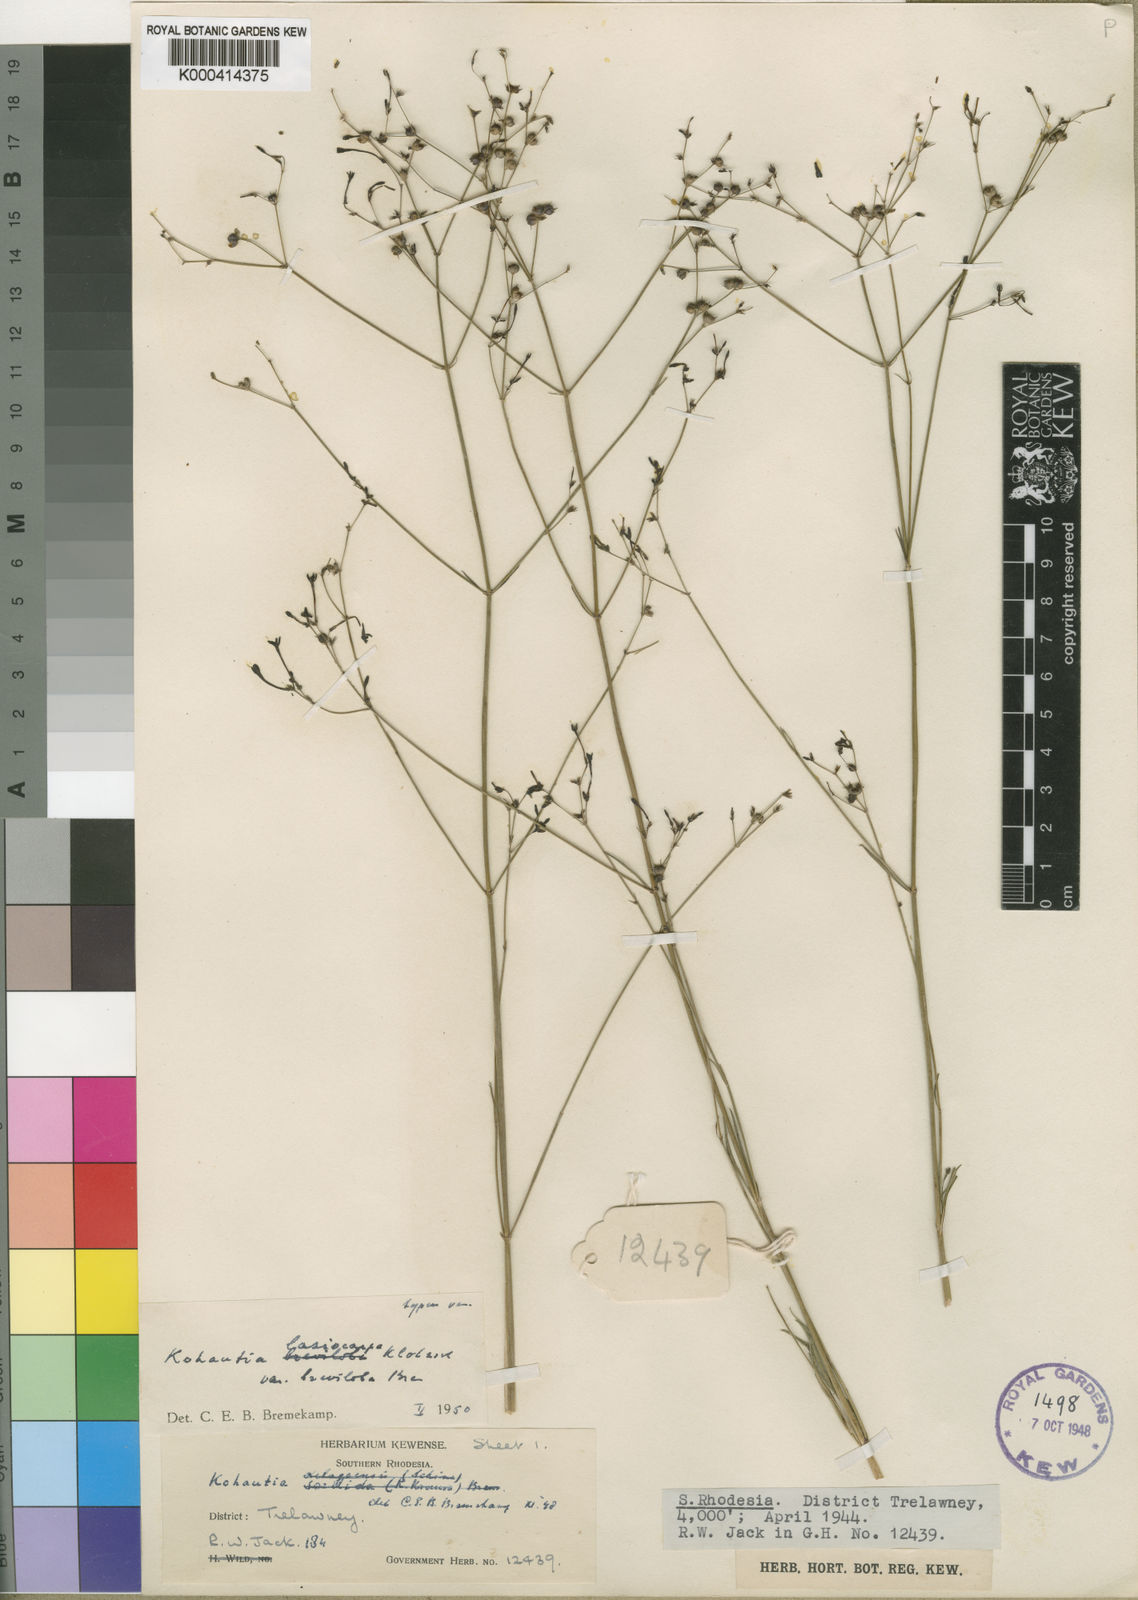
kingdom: Plantae
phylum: Tracheophyta
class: Magnoliopsida
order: Gentianales
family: Rubiaceae
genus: Kohautia
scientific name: Kohautia caespitosa
